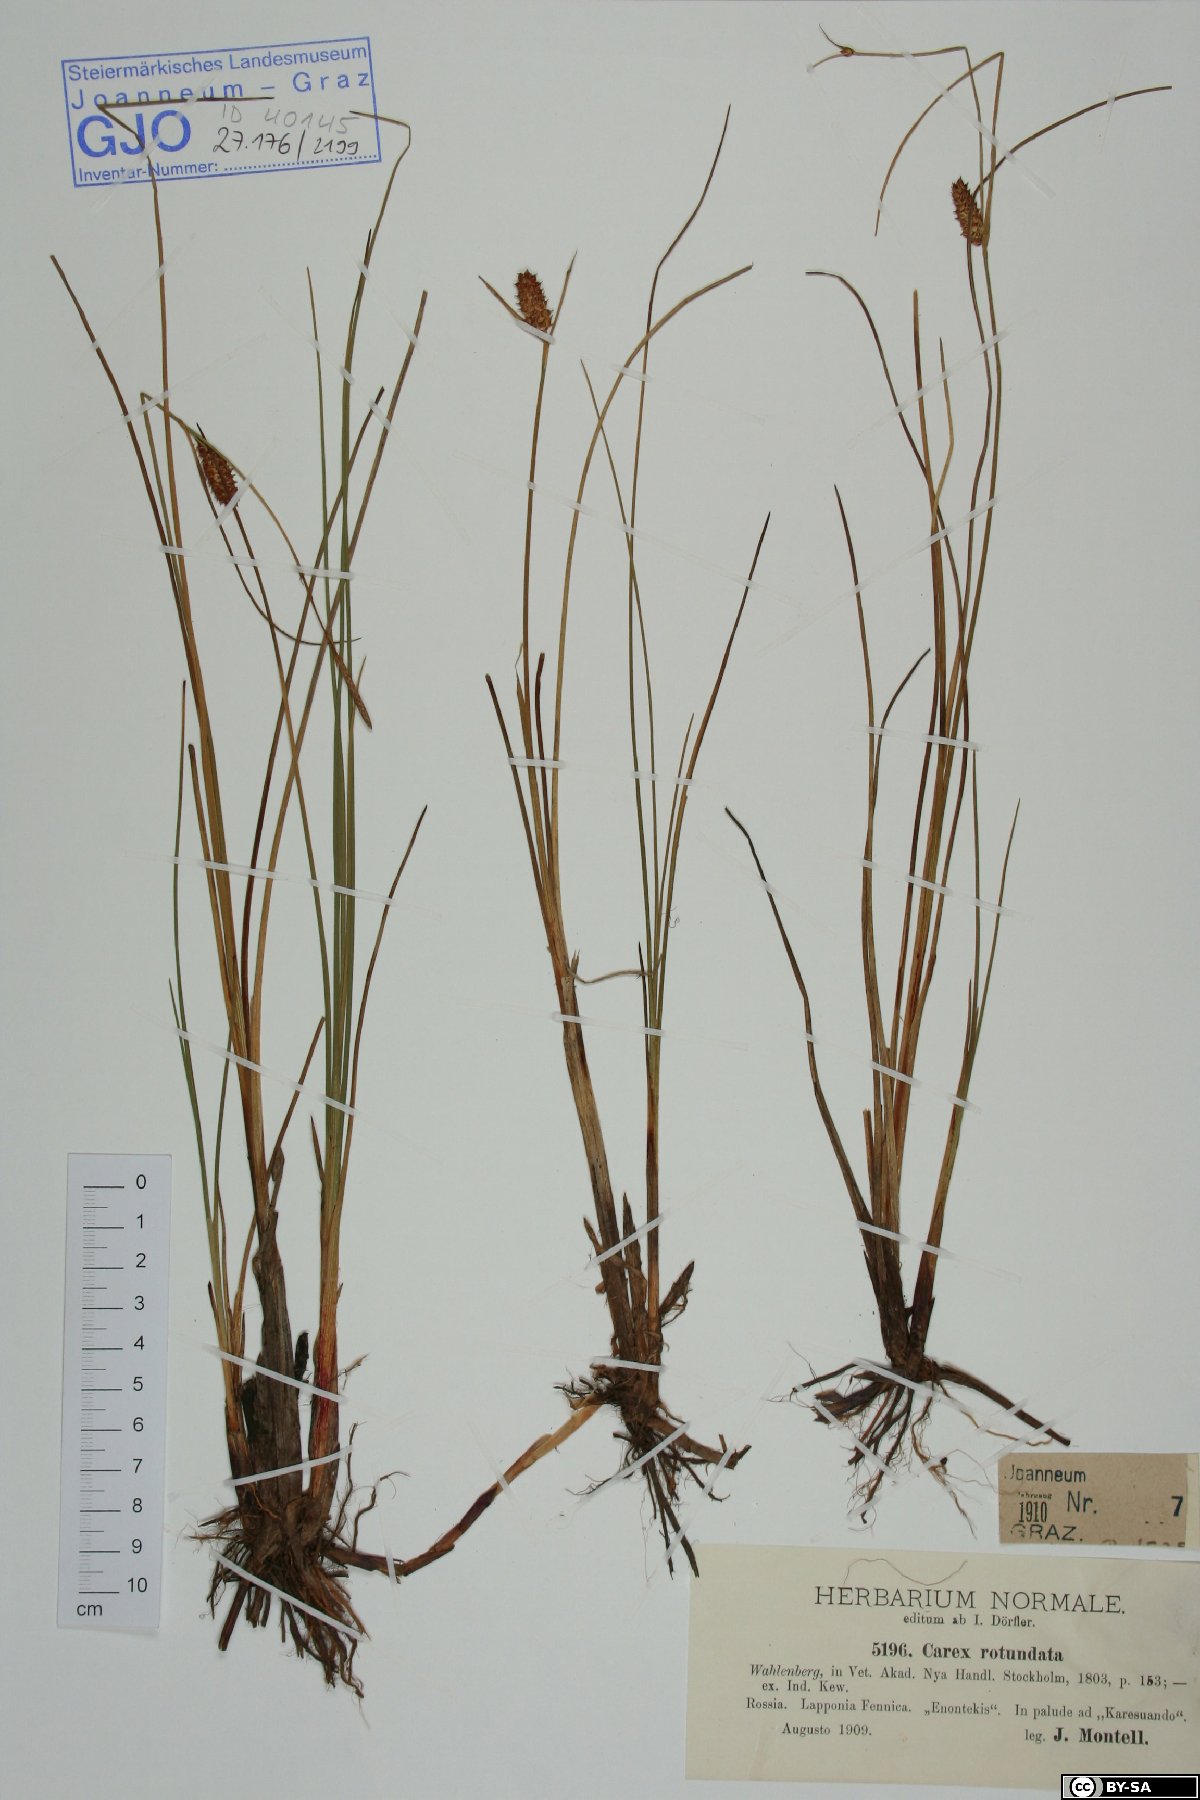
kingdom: Plantae
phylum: Tracheophyta
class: Liliopsida
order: Poales
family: Cyperaceae
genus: Carex
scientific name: Carex rotundata
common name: Round-fruited sedge
